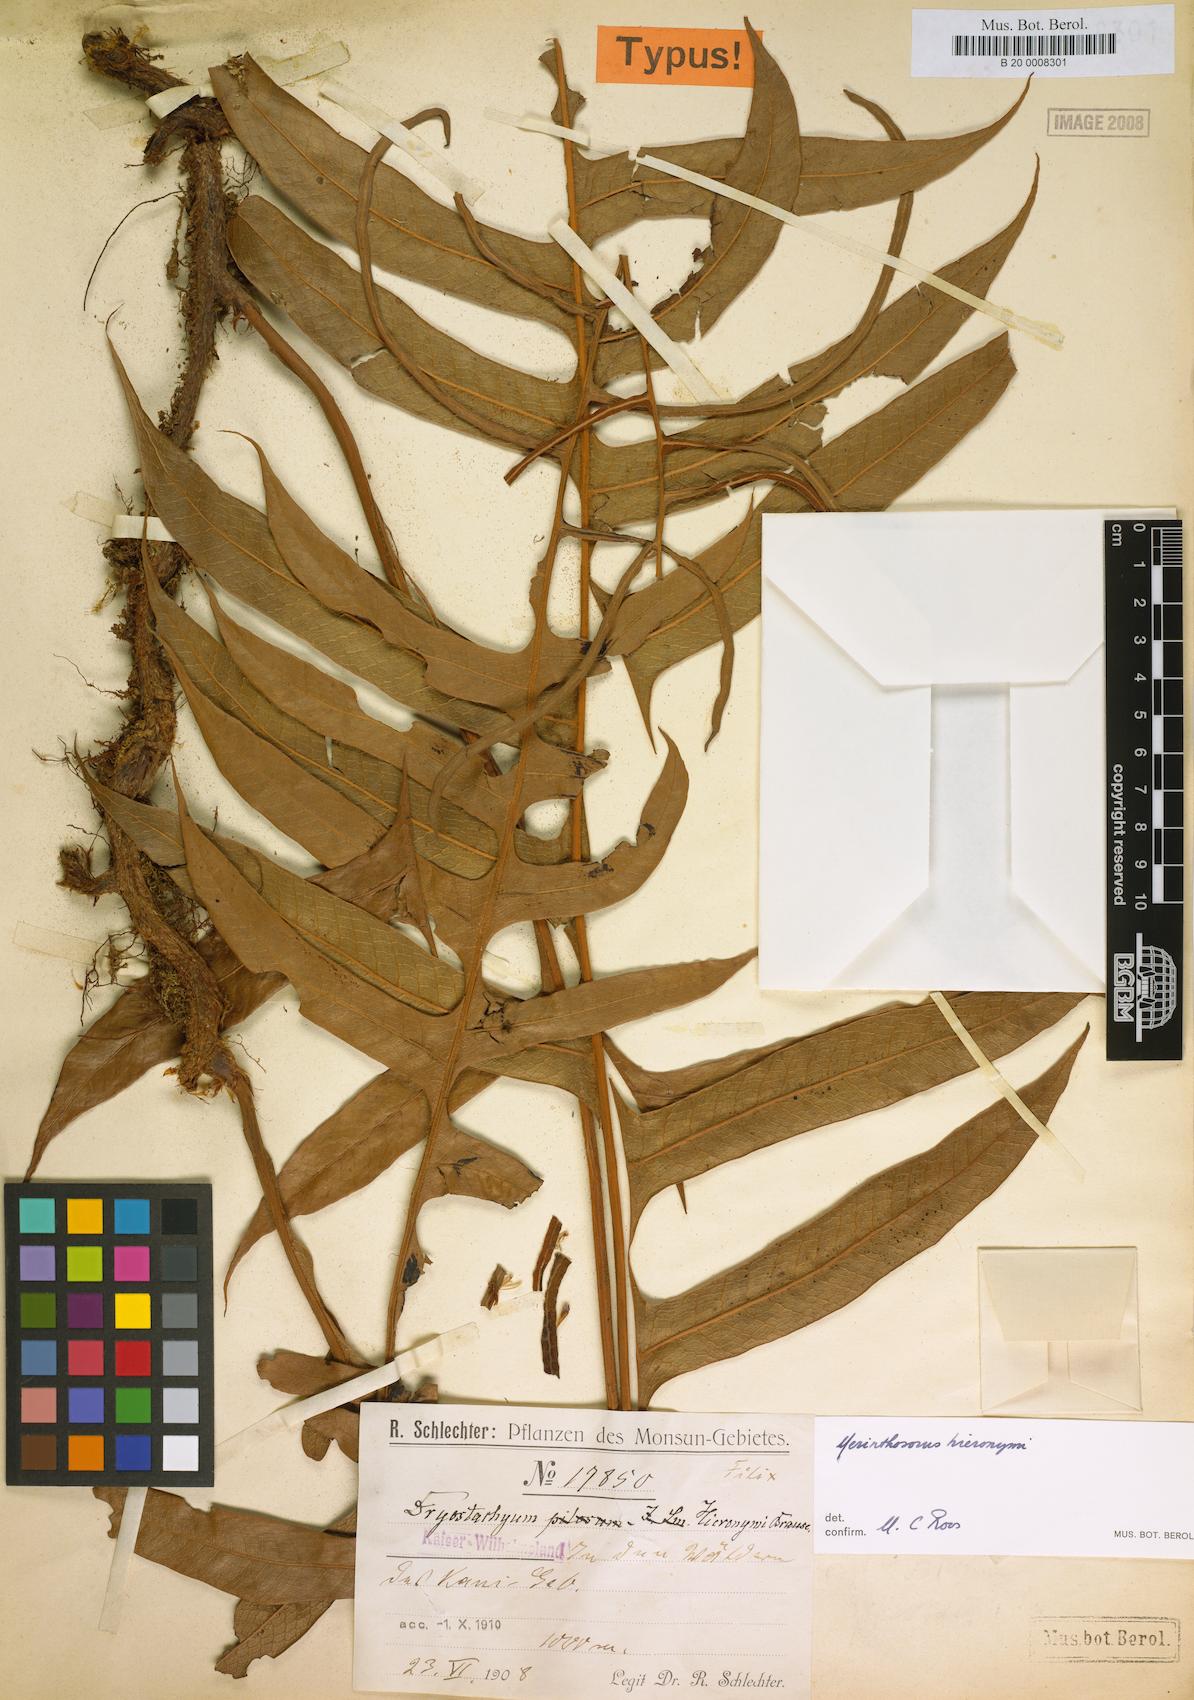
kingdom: Plantae
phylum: Tracheophyta
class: Polypodiopsida
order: Polypodiales
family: Polypodiaceae
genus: Drynaria
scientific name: Drynaria hieronymi
